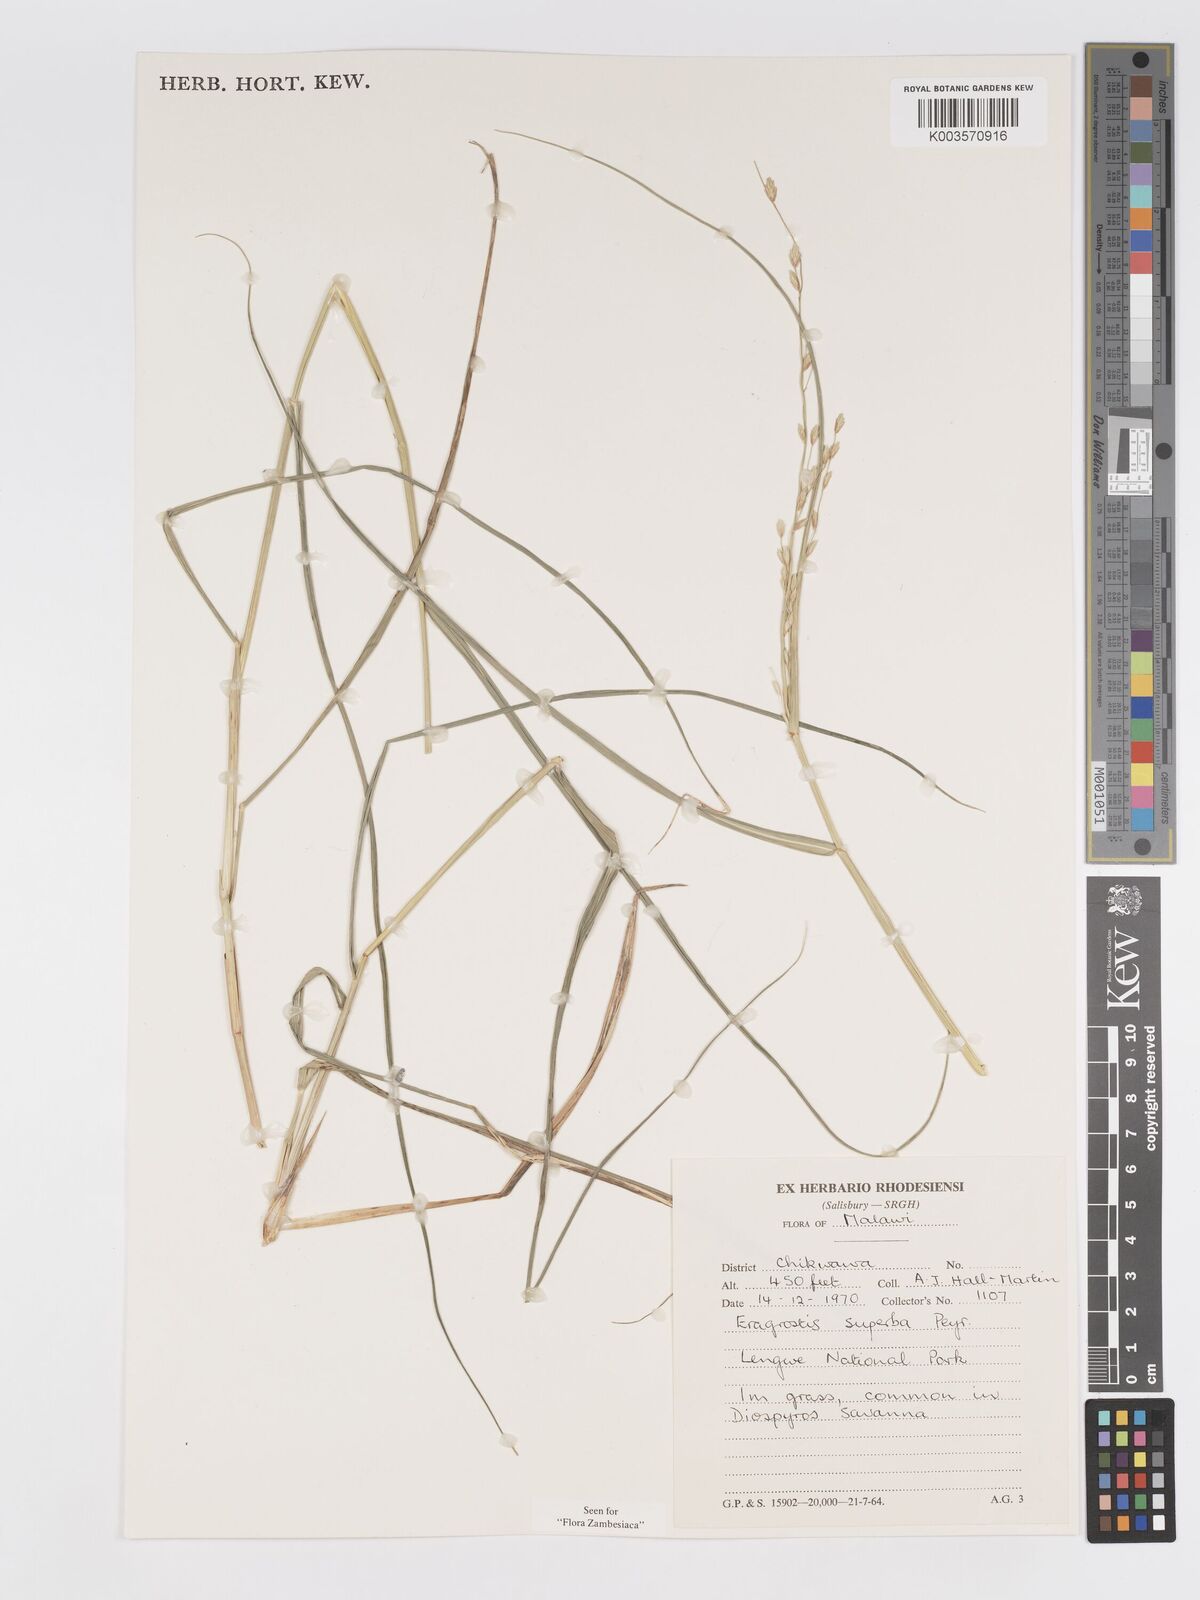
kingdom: Plantae
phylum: Tracheophyta
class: Liliopsida
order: Poales
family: Poaceae
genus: Eragrostis
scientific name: Eragrostis superba
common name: Wilman lovegrass
